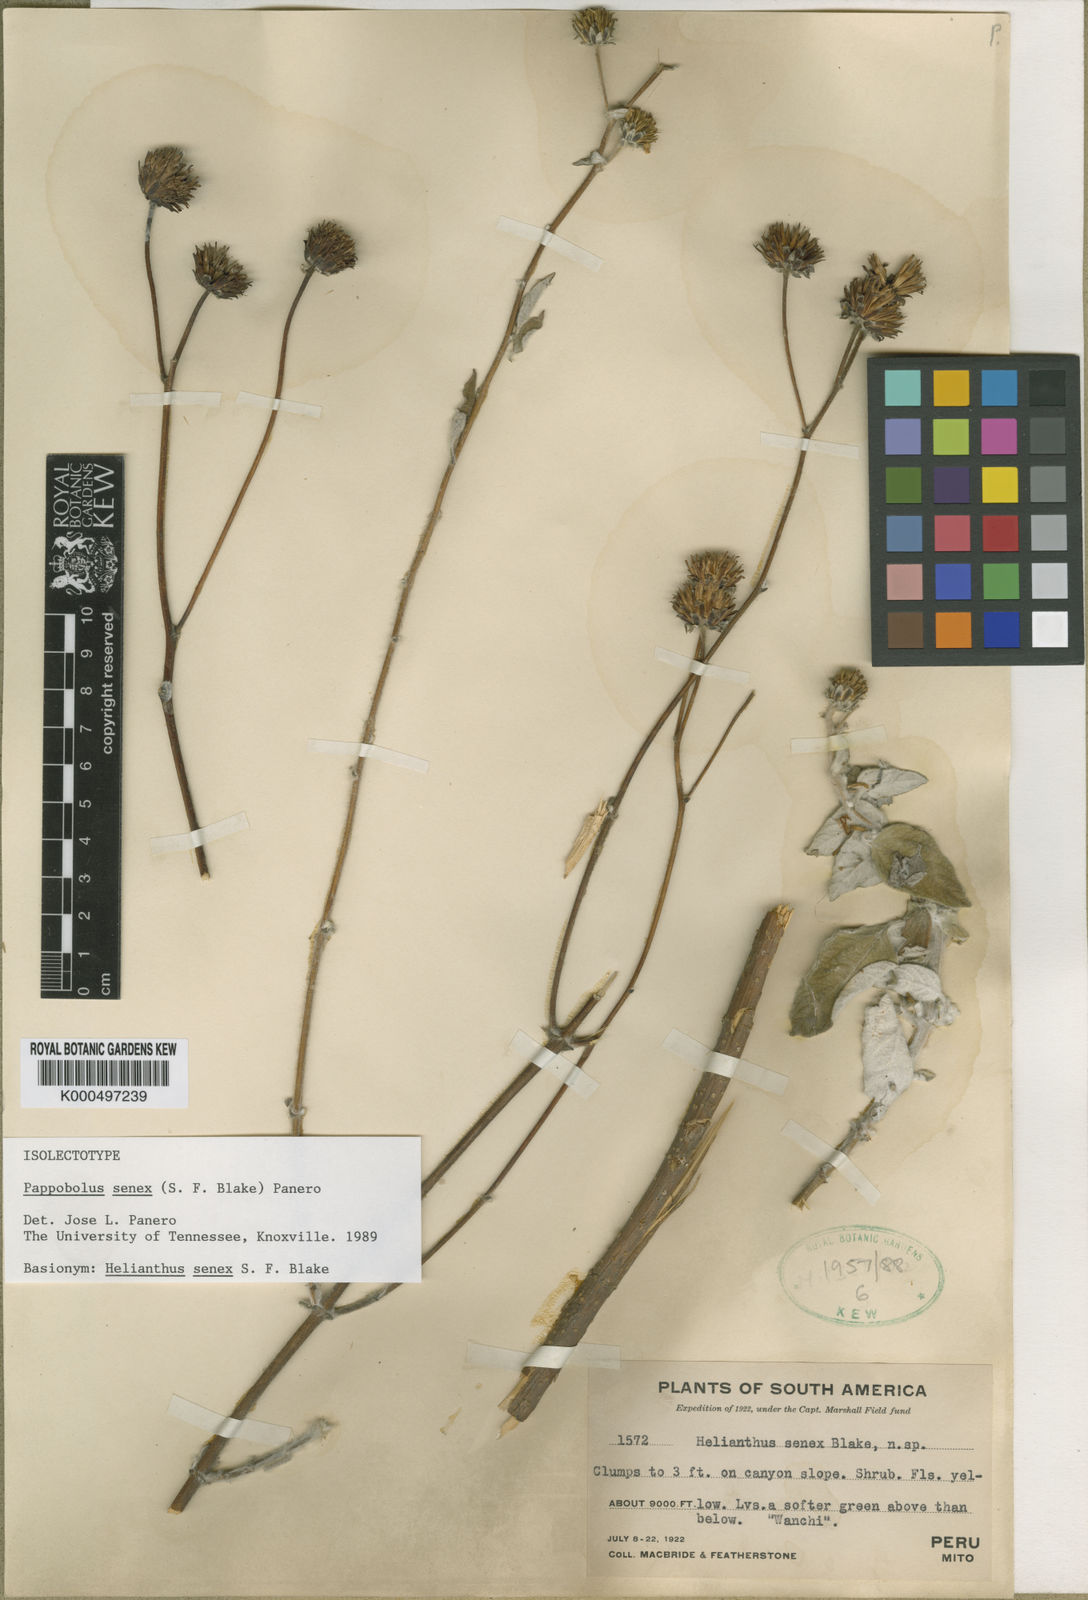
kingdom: Plantae
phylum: Tracheophyta
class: Magnoliopsida
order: Asterales
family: Asteraceae
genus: Pappobolus
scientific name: Pappobolus senex
